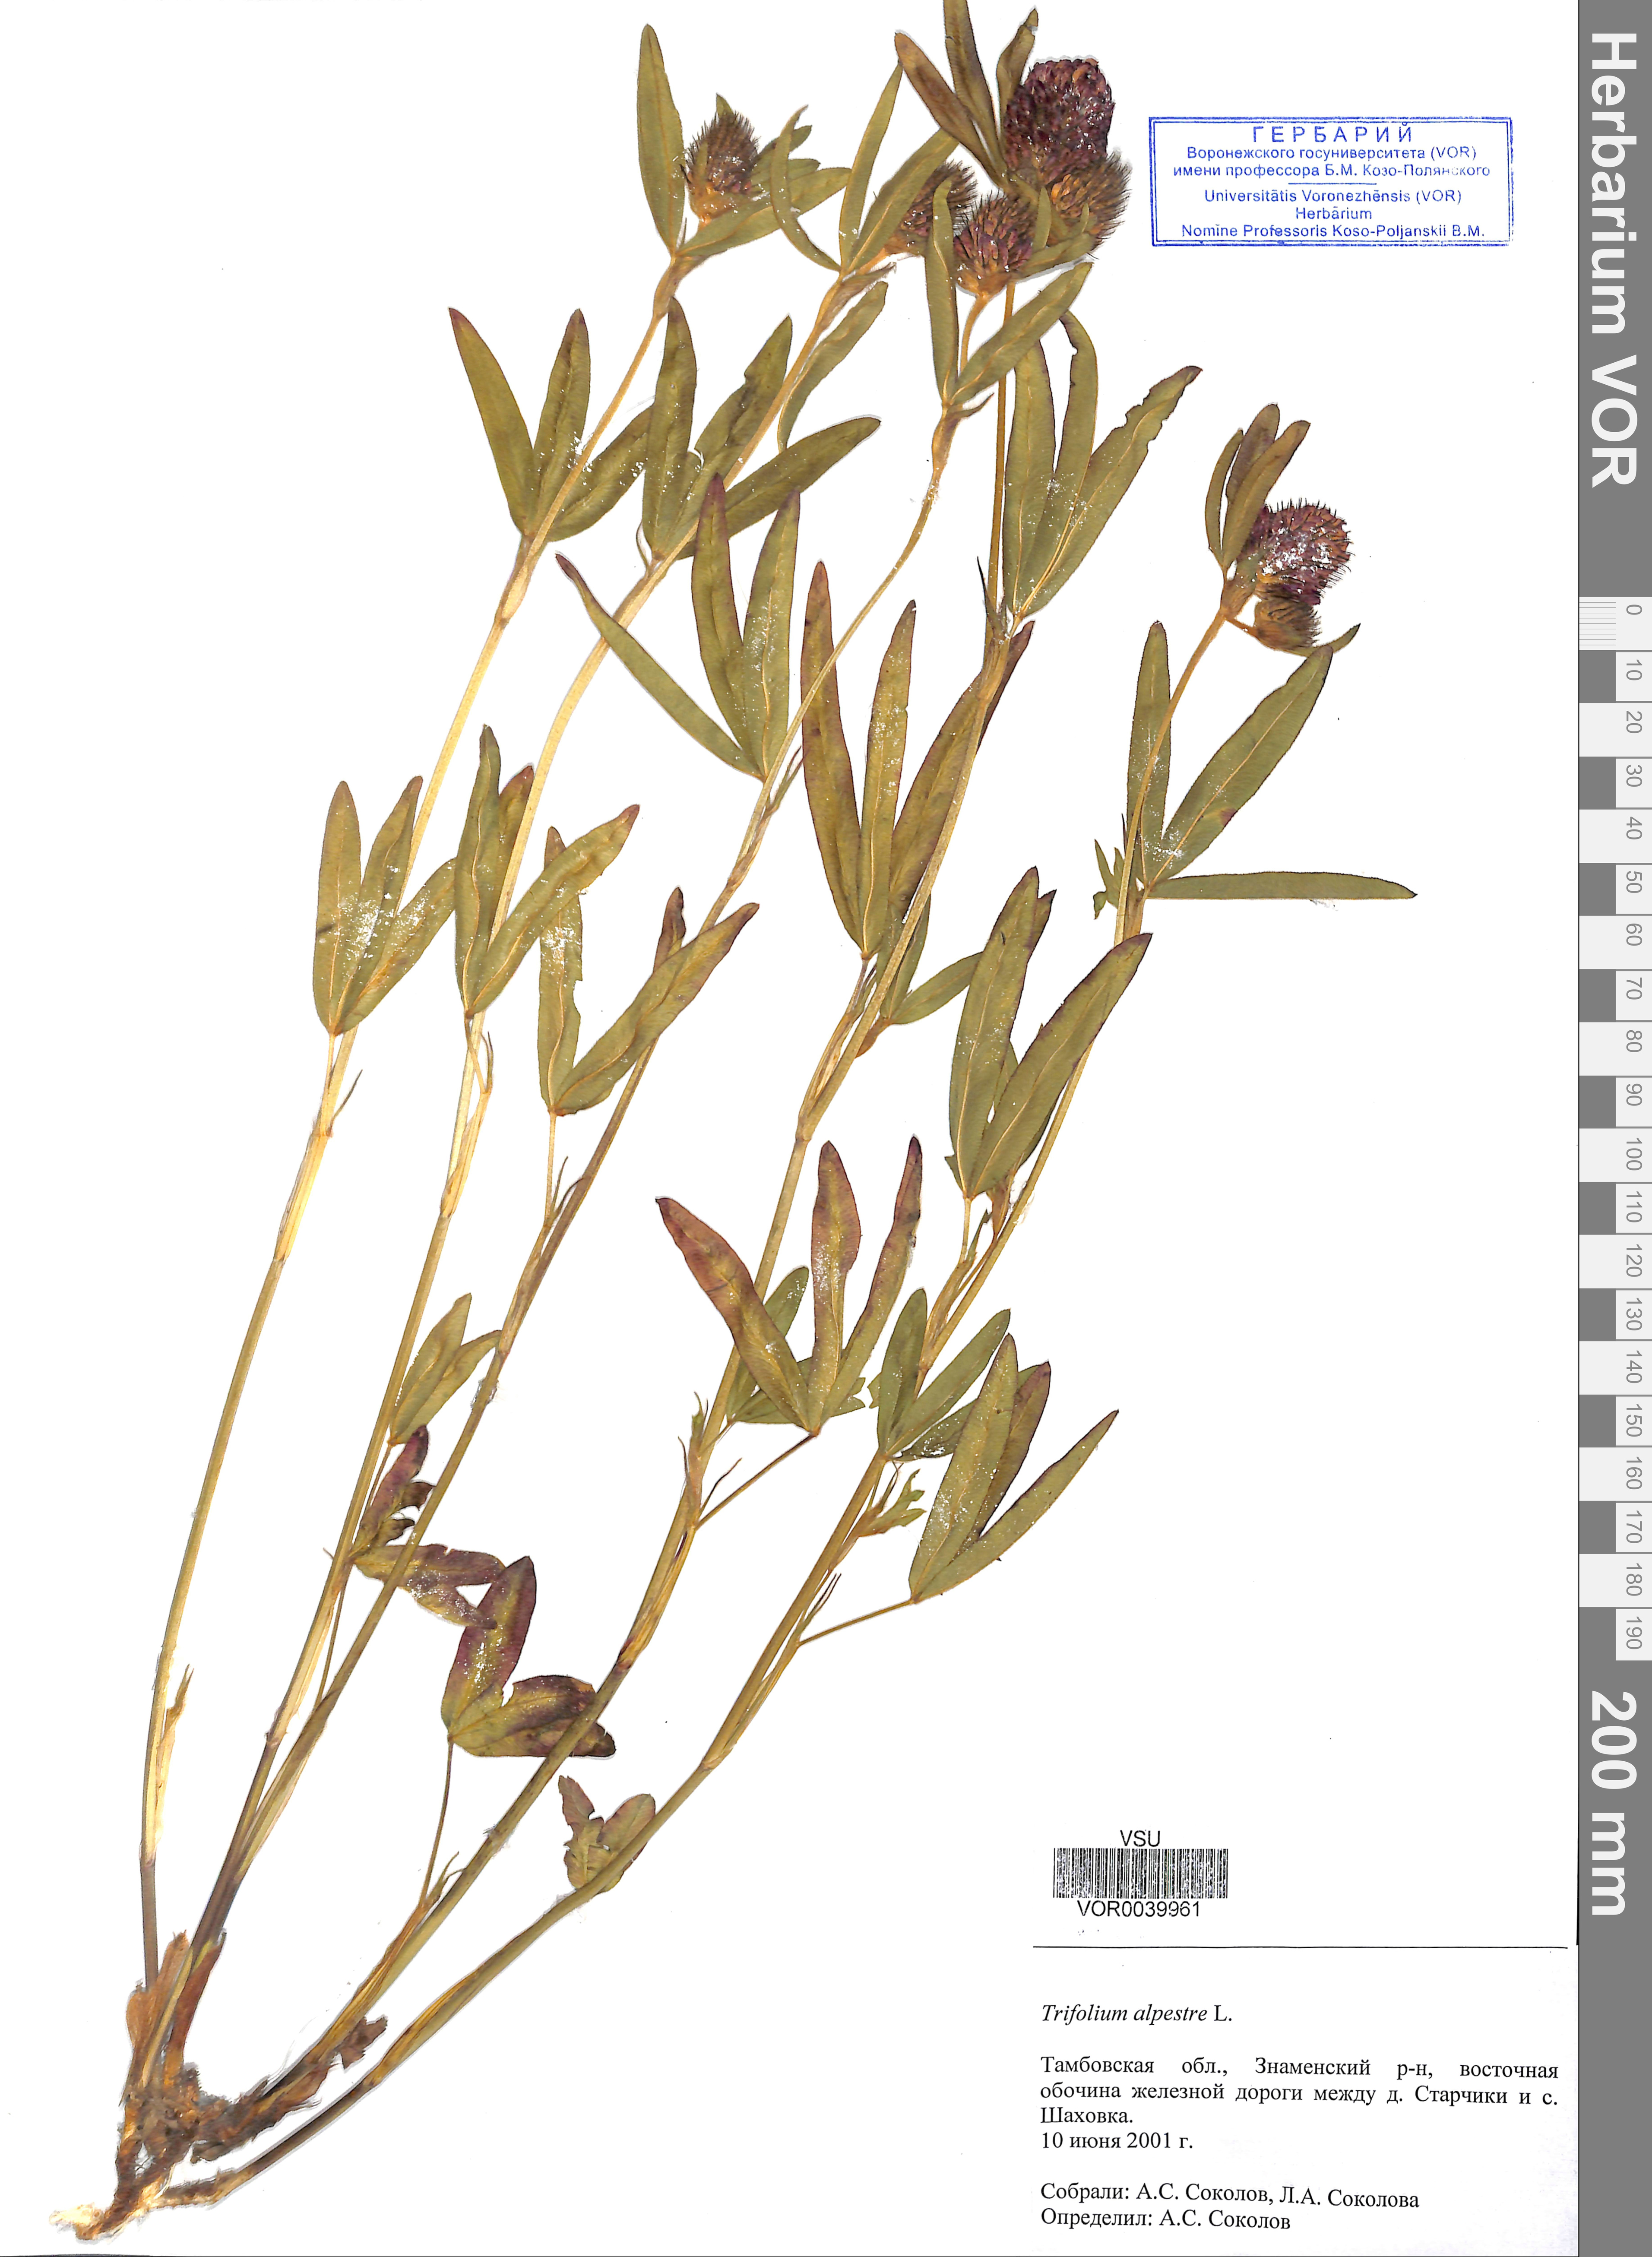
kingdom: Plantae
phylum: Tracheophyta
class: Magnoliopsida
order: Fabales
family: Fabaceae
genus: Trifolium
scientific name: Trifolium alpestre
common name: Owl-head clover
